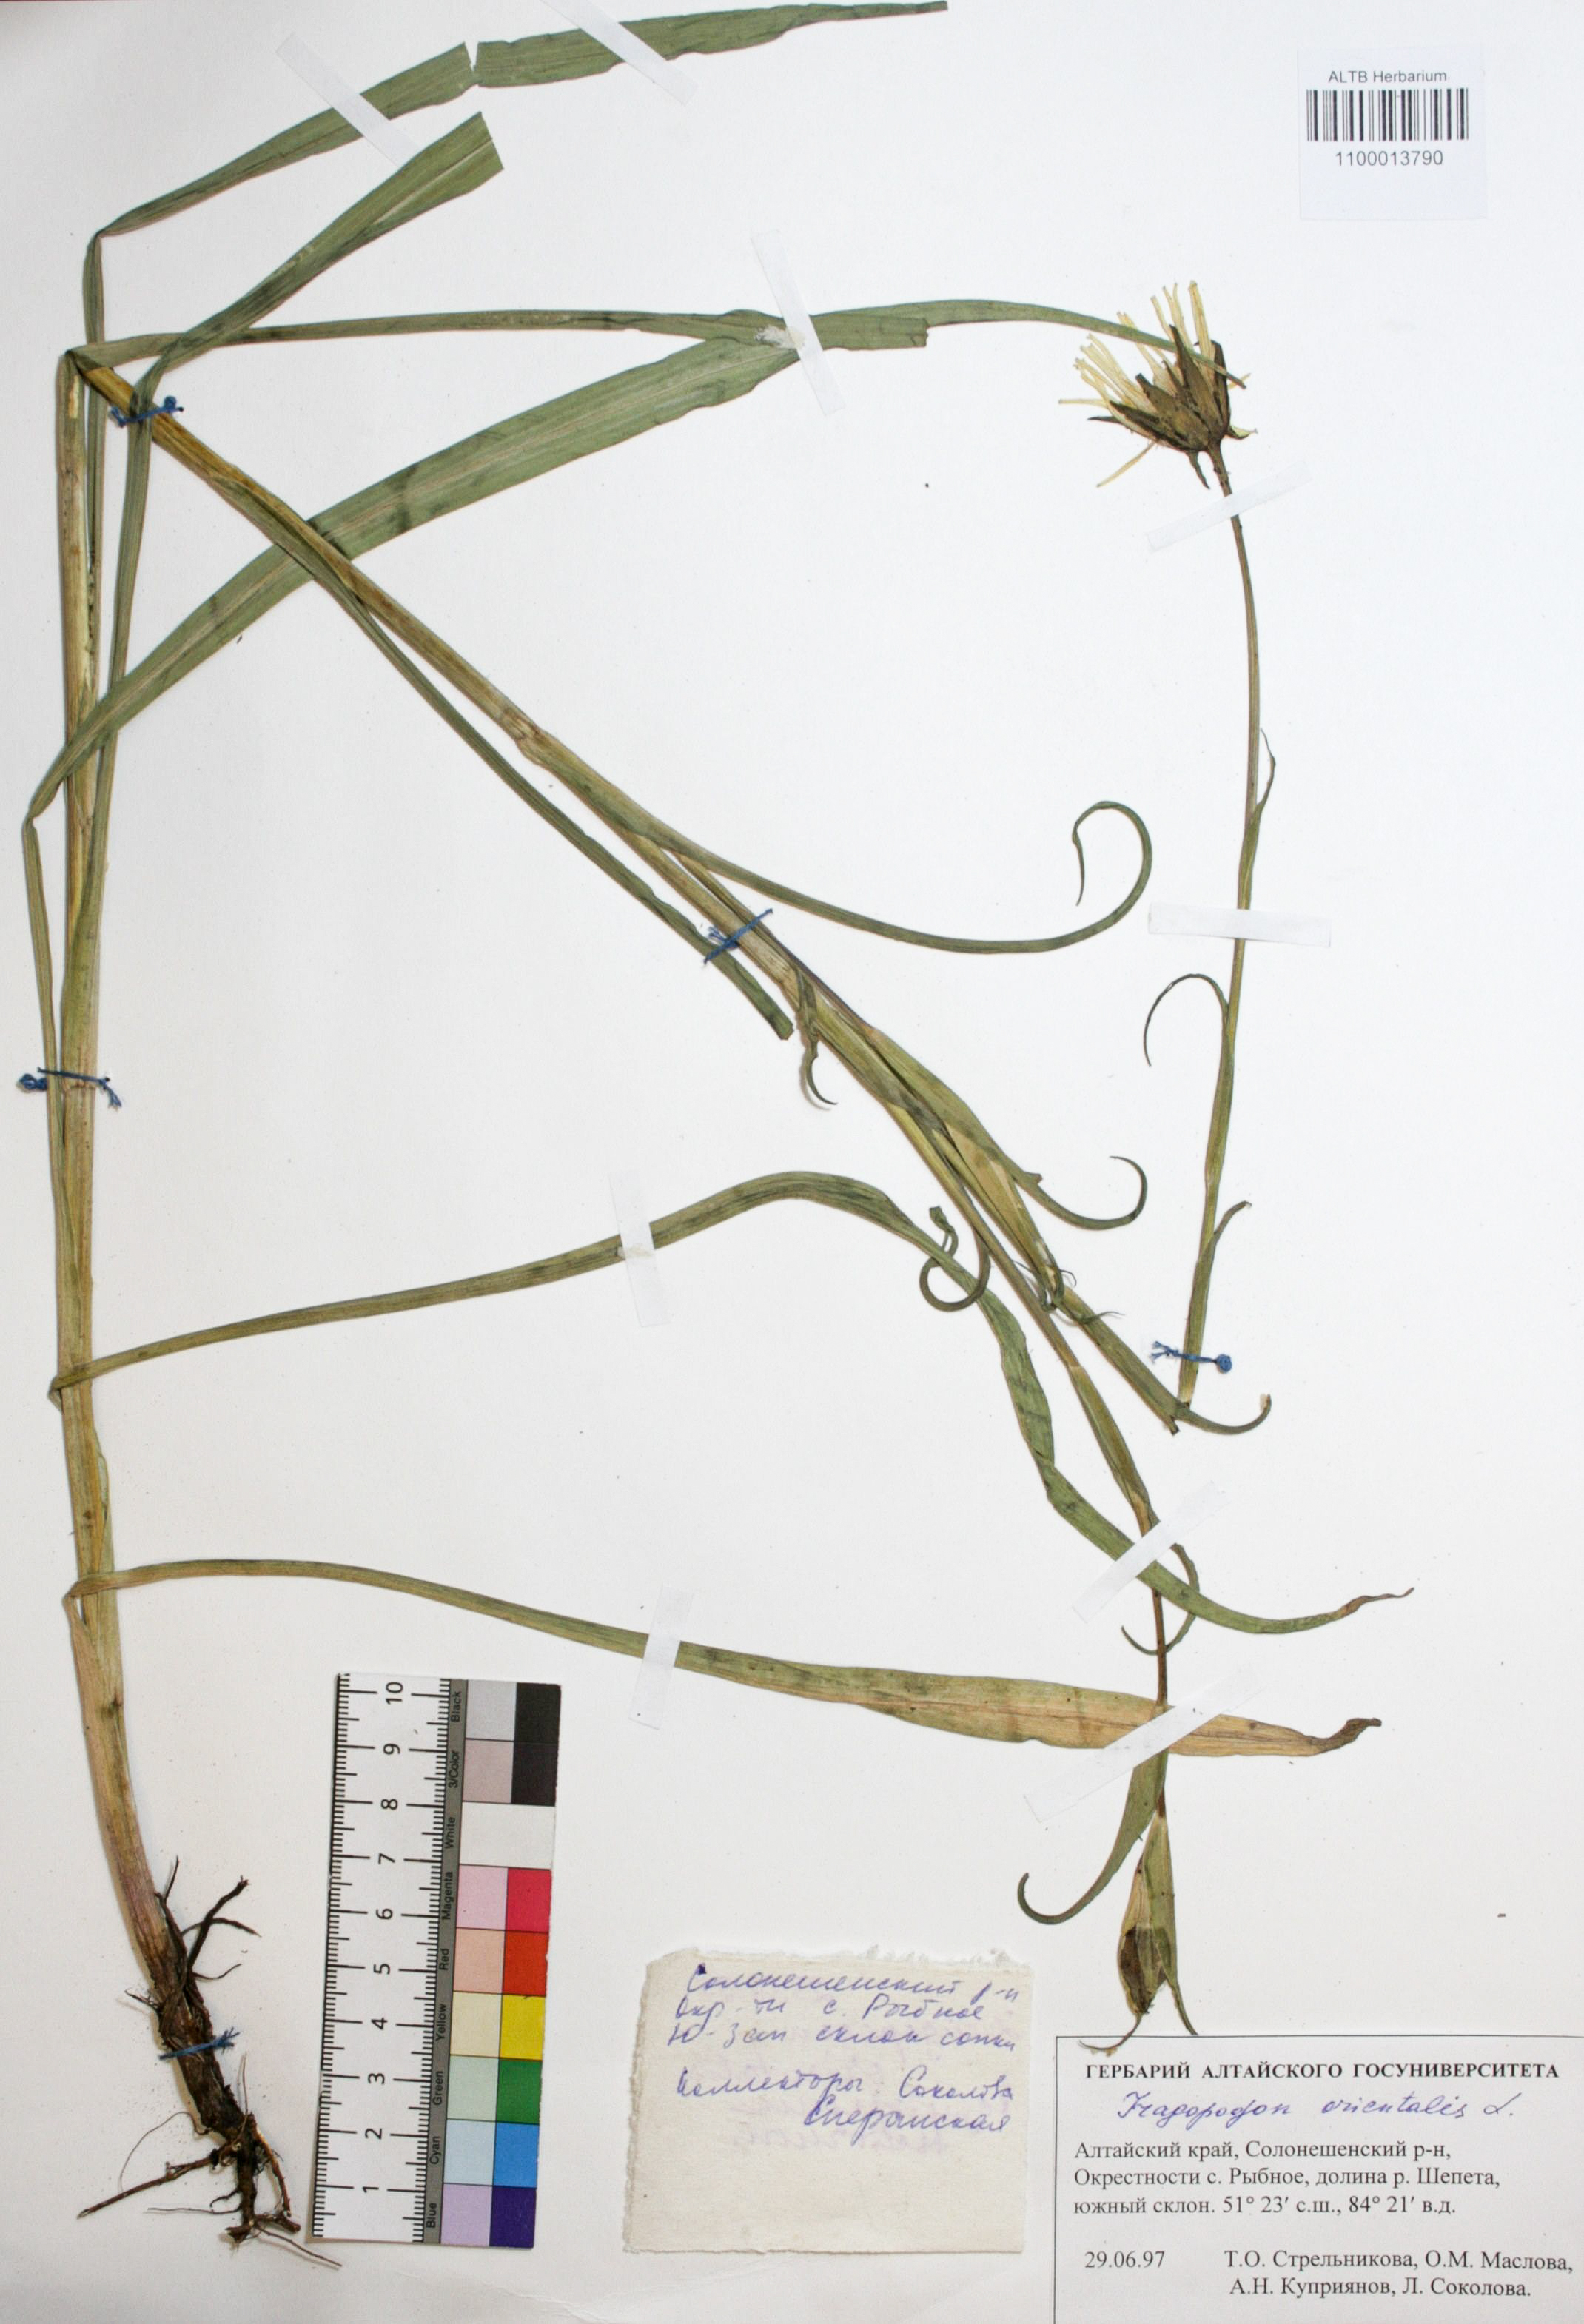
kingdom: Plantae
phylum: Tracheophyta
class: Magnoliopsida
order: Asterales
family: Asteraceae
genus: Tragopogon
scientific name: Tragopogon orientalis
